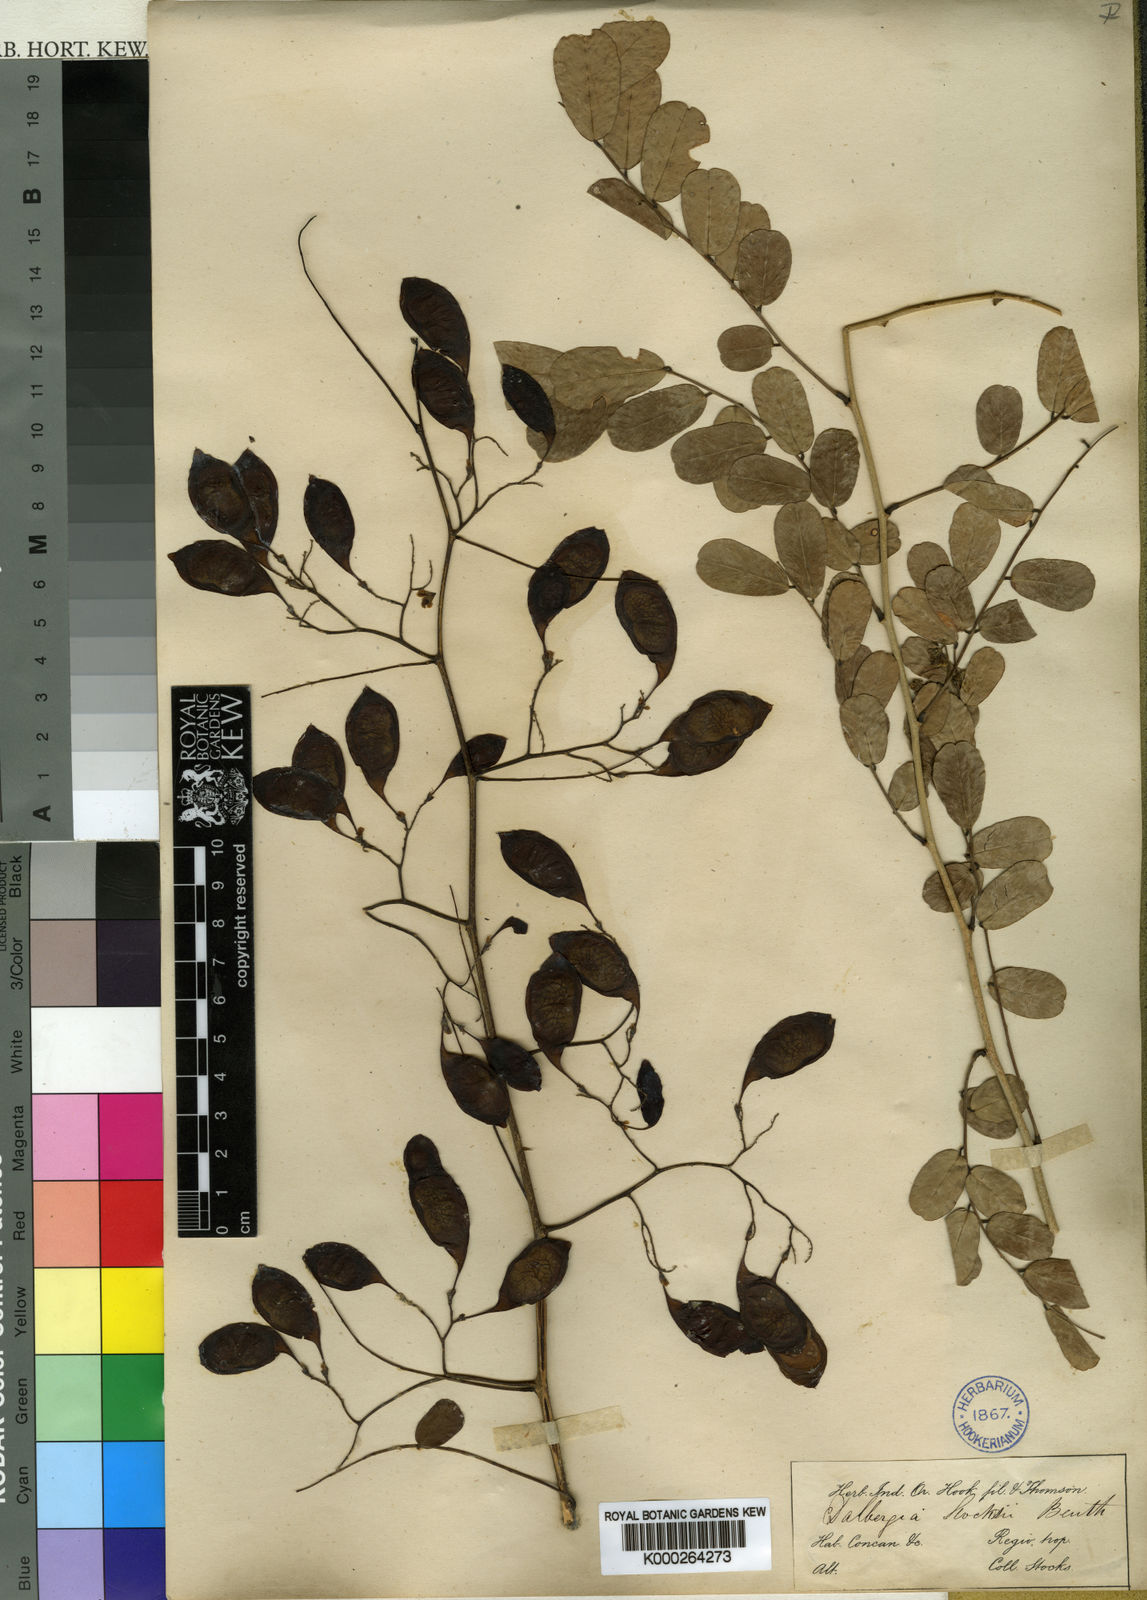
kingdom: Plantae
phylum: Tracheophyta
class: Magnoliopsida
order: Fabales
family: Fabaceae
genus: Dalbergia
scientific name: Dalbergia melanoxylon
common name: African blackwood
